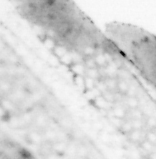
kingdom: Animalia
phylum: Chordata
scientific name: Chordata
